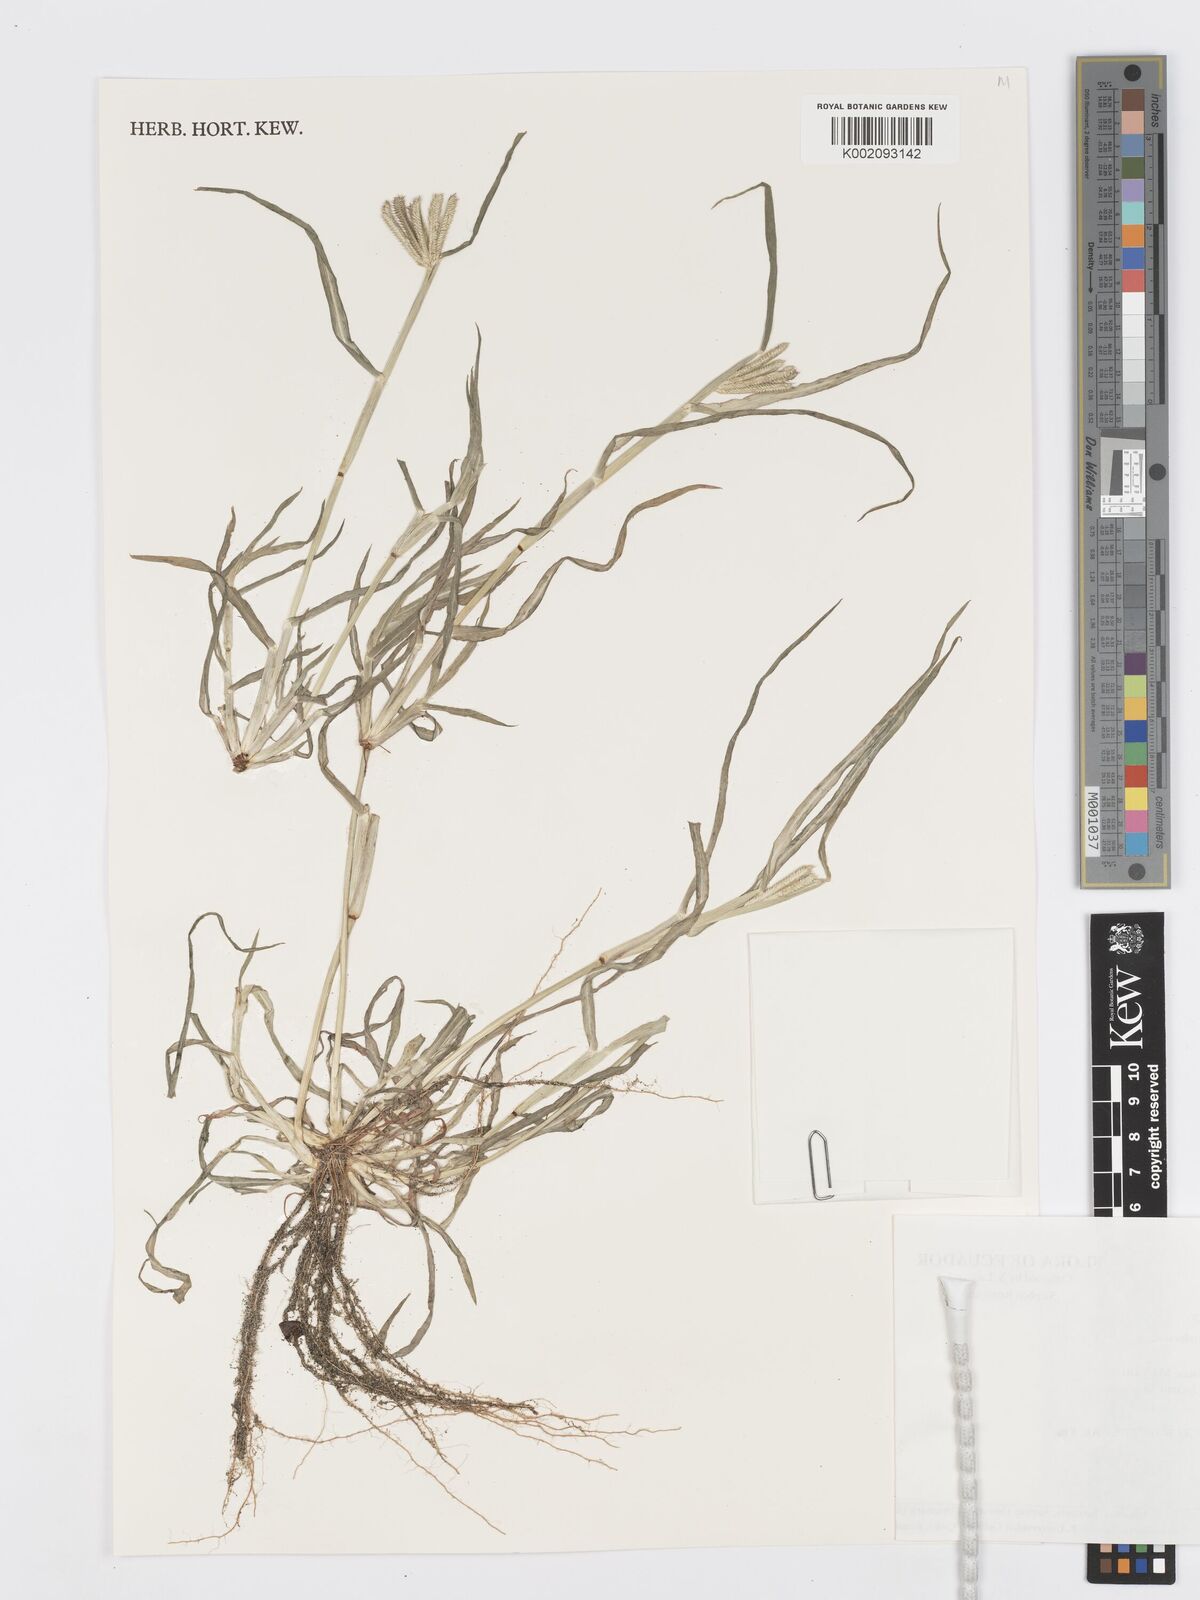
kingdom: Plantae
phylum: Tracheophyta
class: Liliopsida
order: Poales
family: Poaceae
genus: Dactyloctenium
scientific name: Dactyloctenium aegyptium
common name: Egyptian grass
